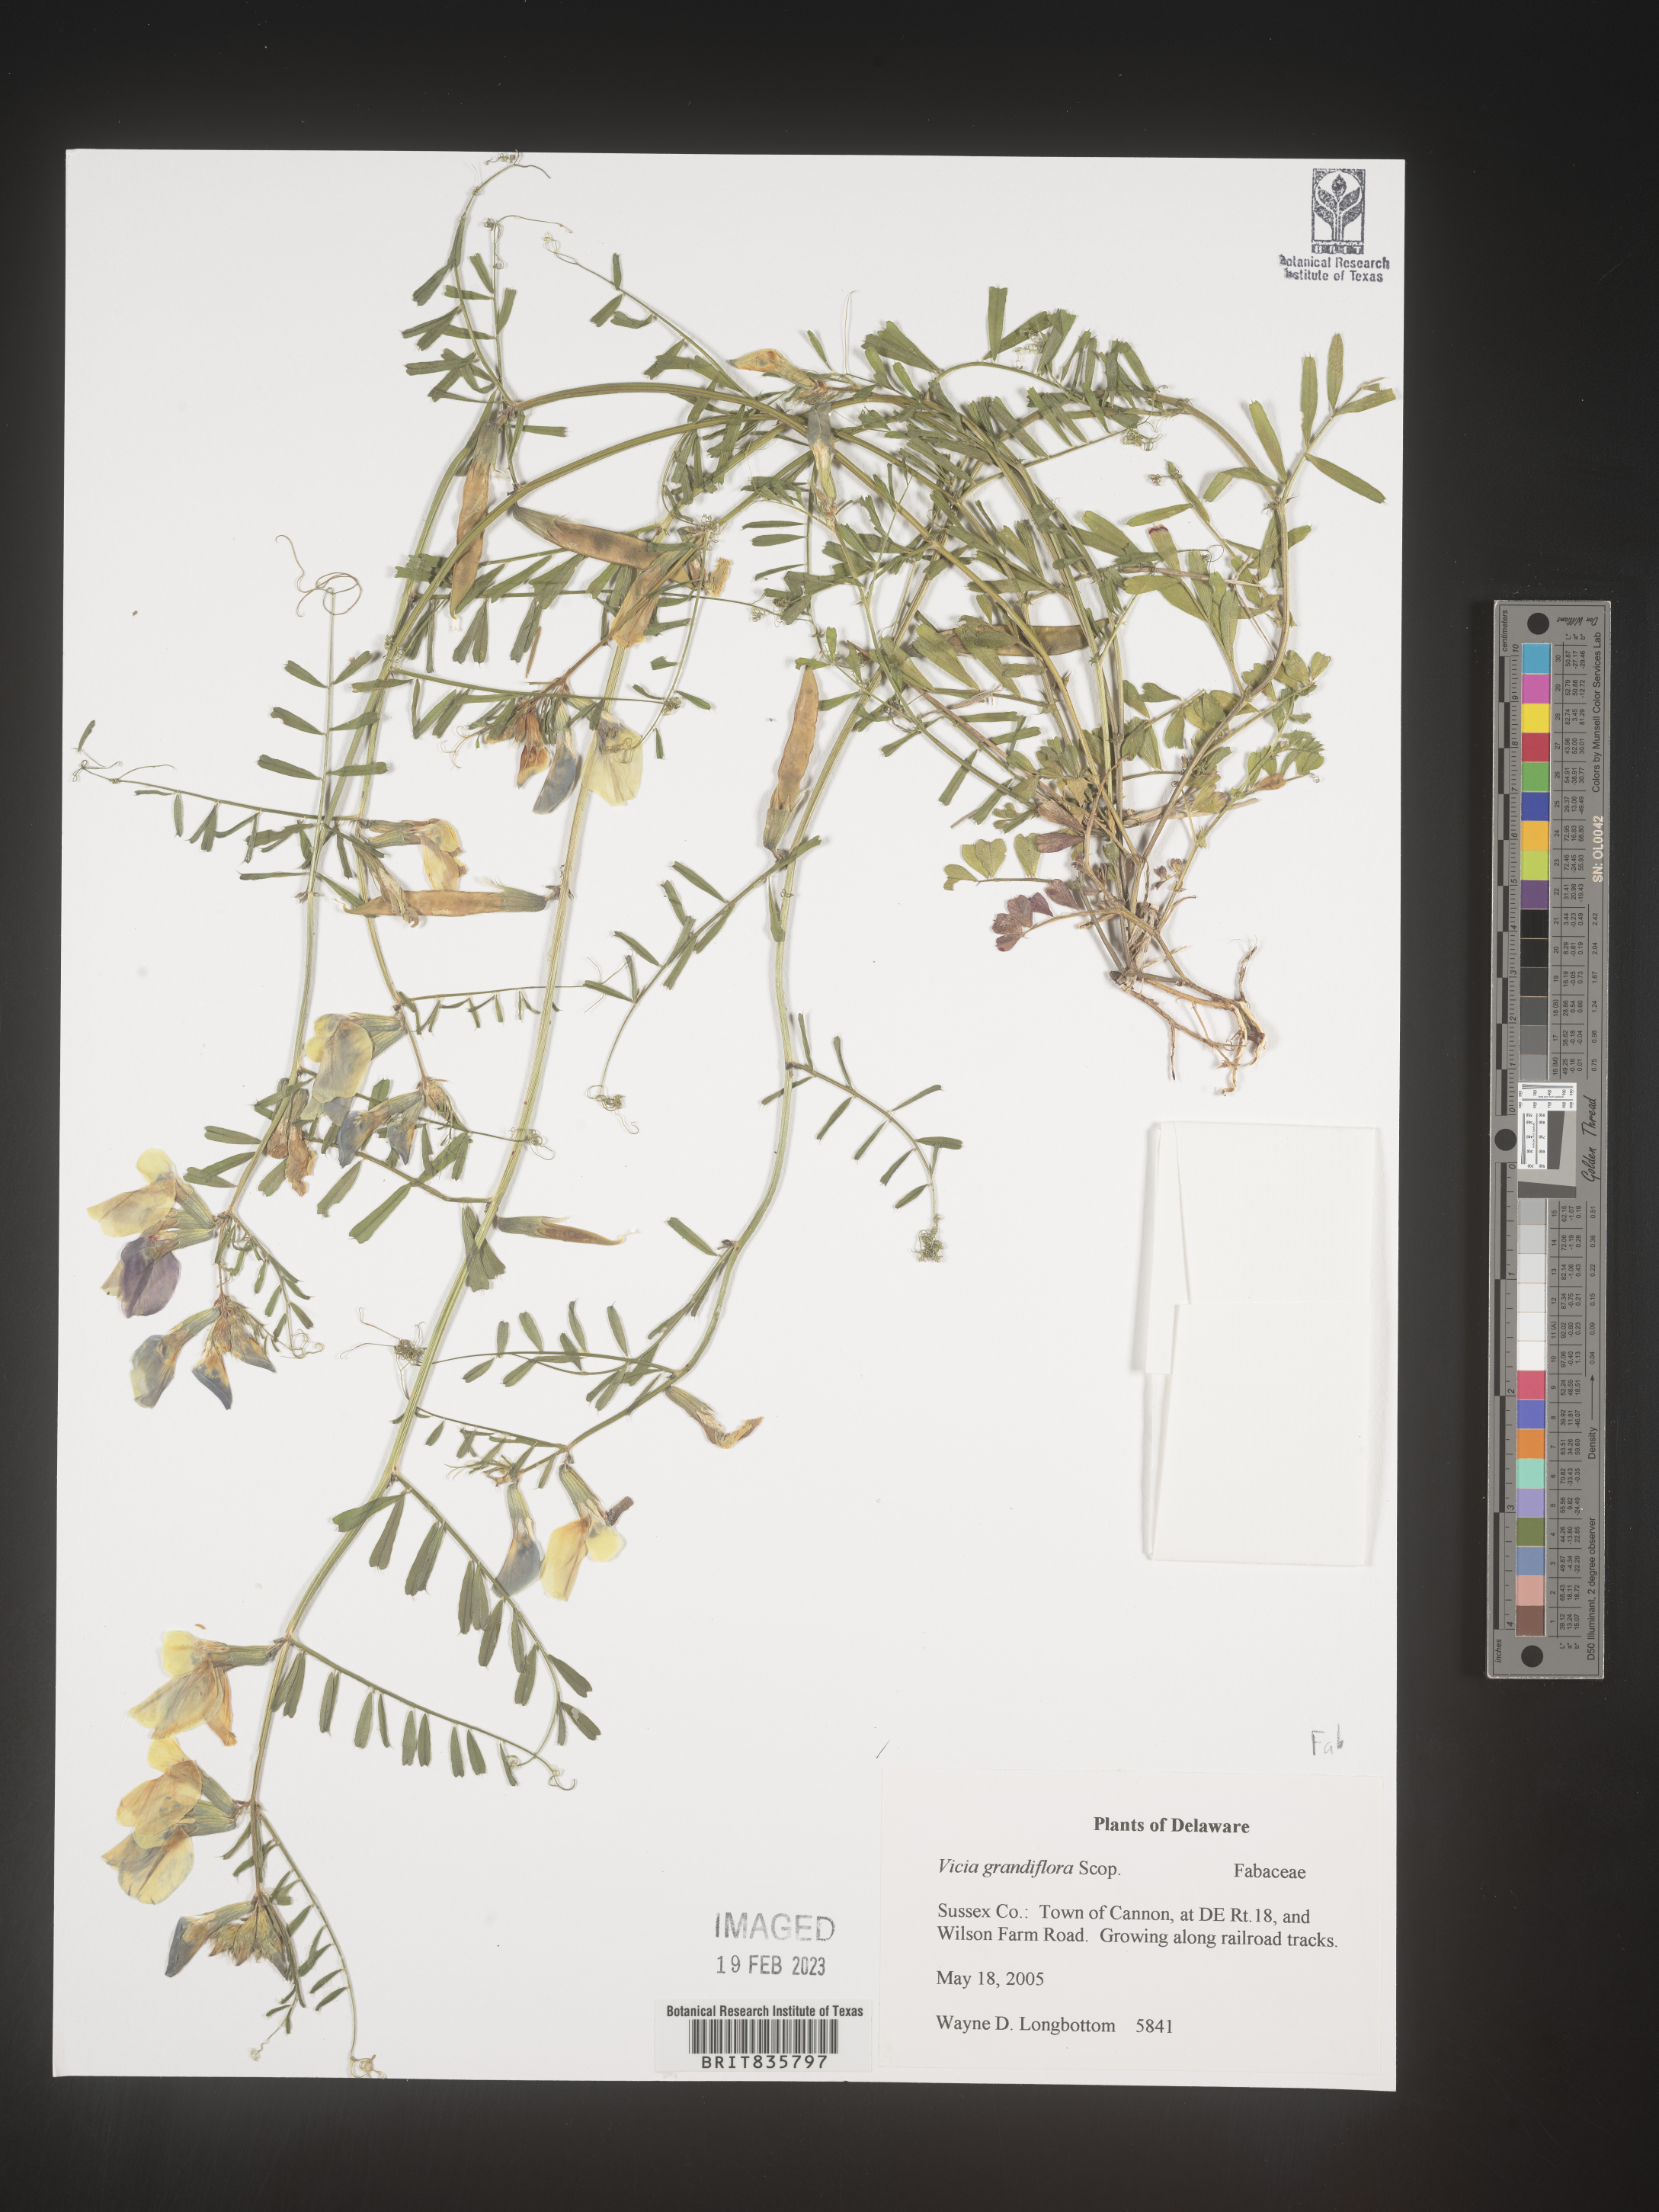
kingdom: Plantae
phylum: Tracheophyta
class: Magnoliopsida
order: Fabales
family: Fabaceae
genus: Vicia
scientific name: Vicia grandiflora
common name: Large yellow vetch
